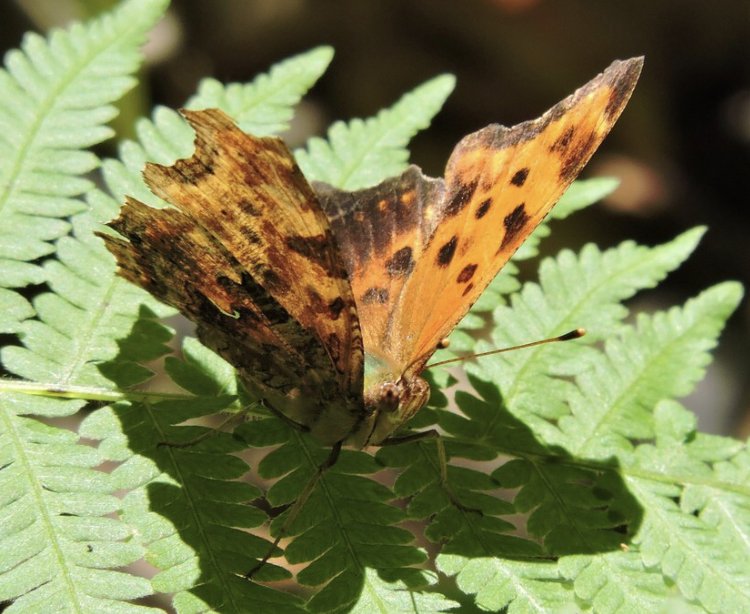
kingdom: Animalia
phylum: Arthropoda
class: Insecta
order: Lepidoptera
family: Nymphalidae
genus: Polygonia
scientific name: Polygonia comma
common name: Eastern Comma
